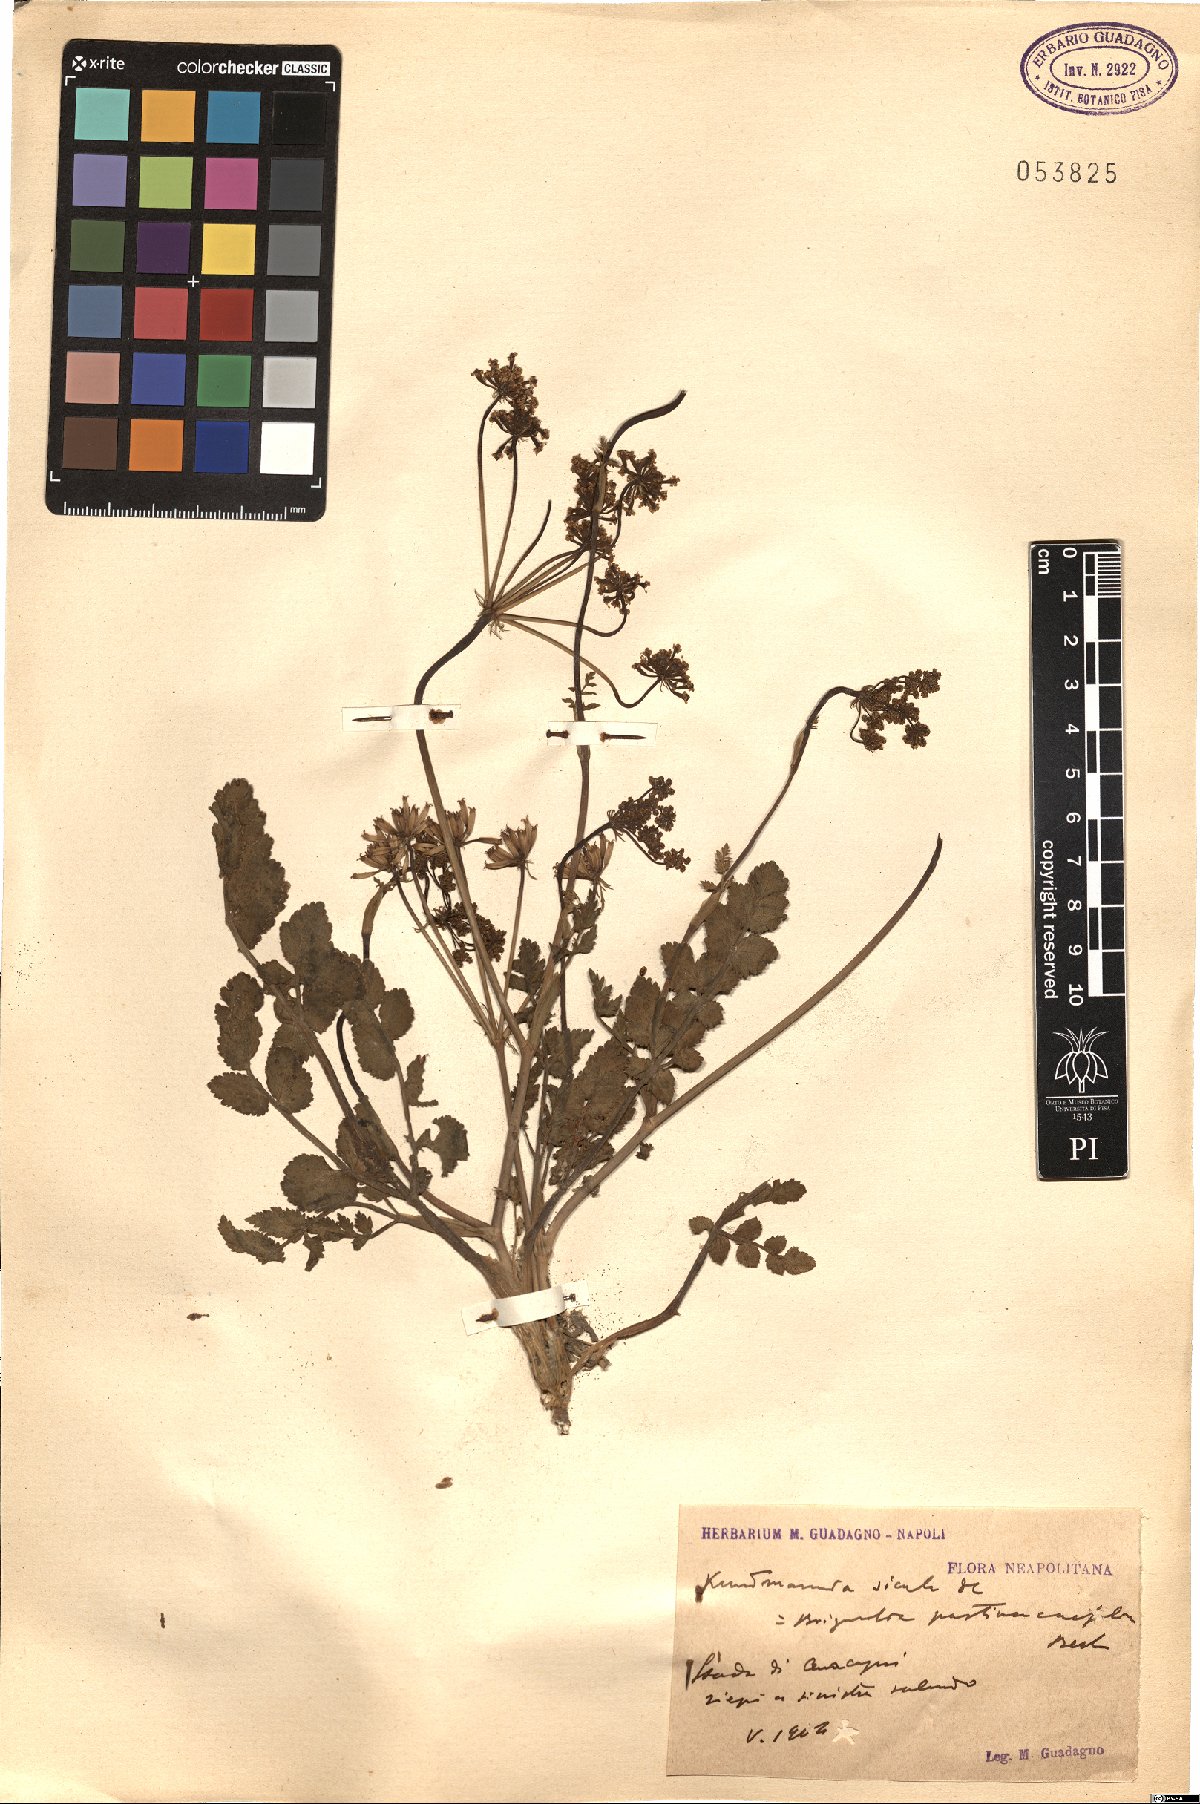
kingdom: Plantae
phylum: Tracheophyta
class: Magnoliopsida
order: Apiales
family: Apiaceae
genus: Kundmannia
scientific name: Kundmannia sicula
